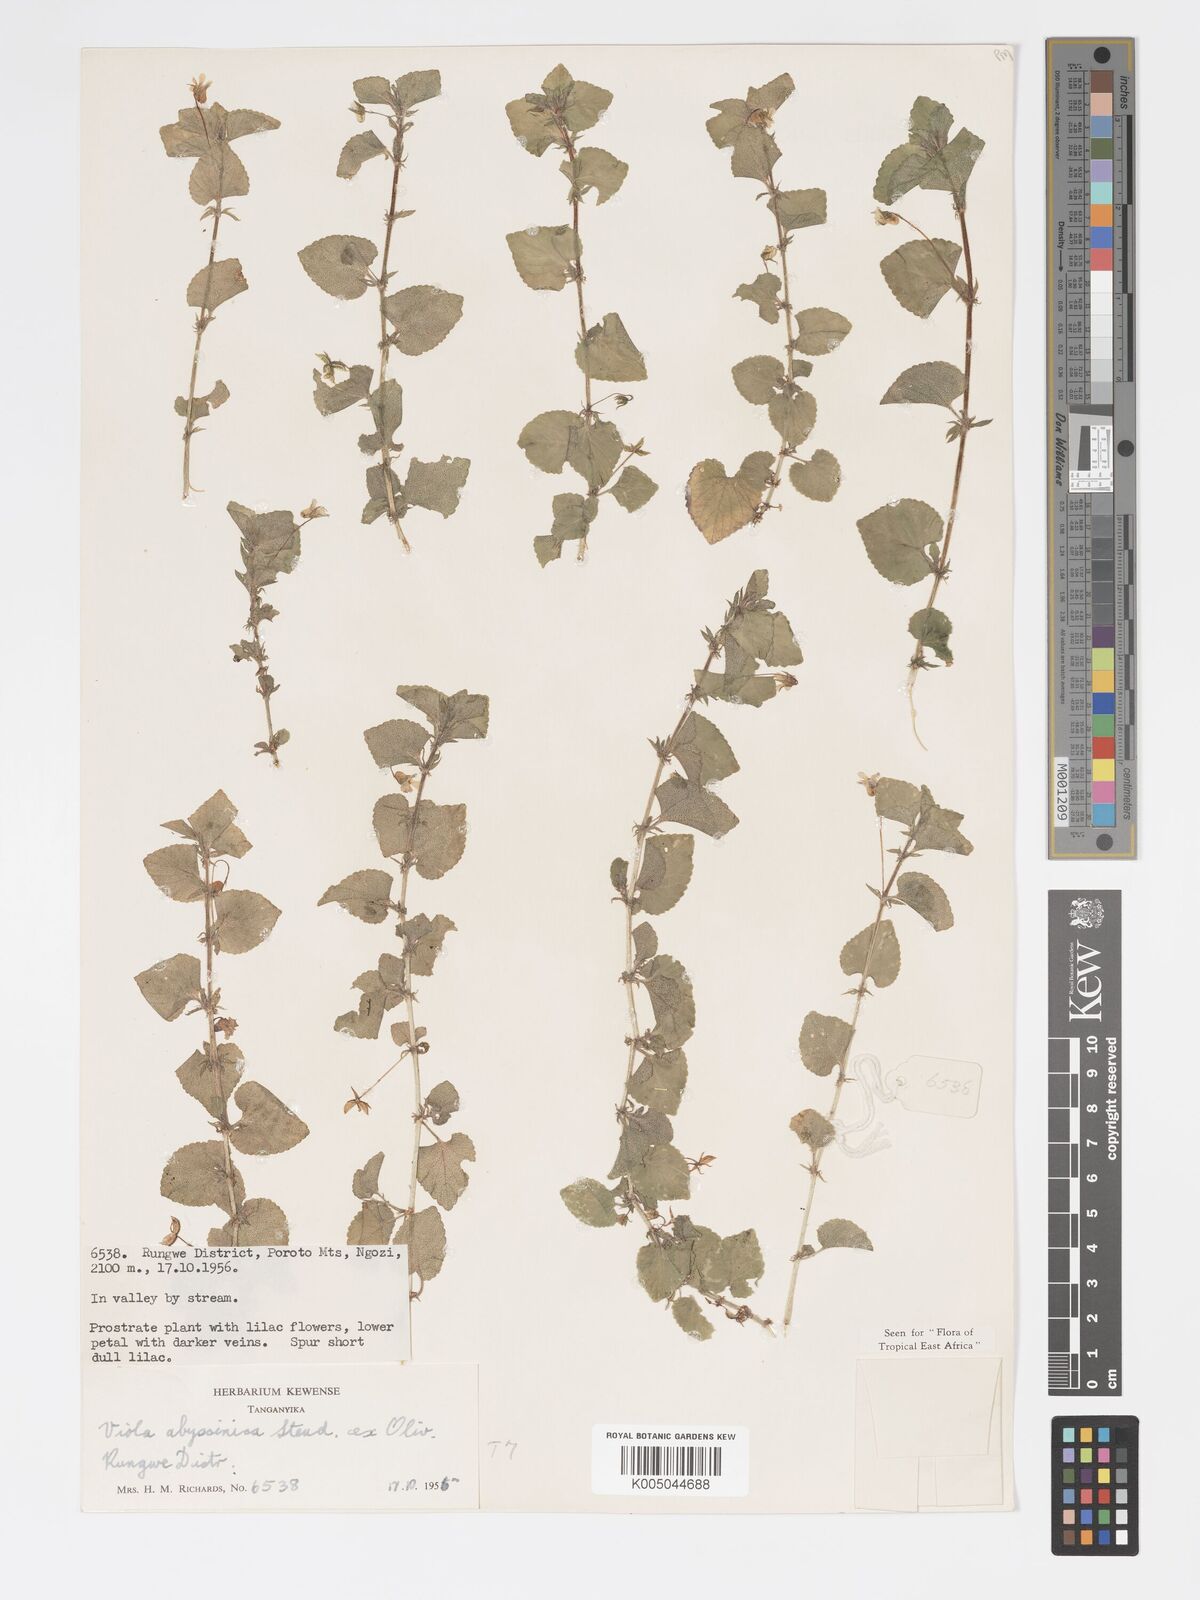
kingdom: Plantae
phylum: Tracheophyta
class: Magnoliopsida
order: Malpighiales
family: Violaceae
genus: Viola
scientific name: Viola abyssinica
